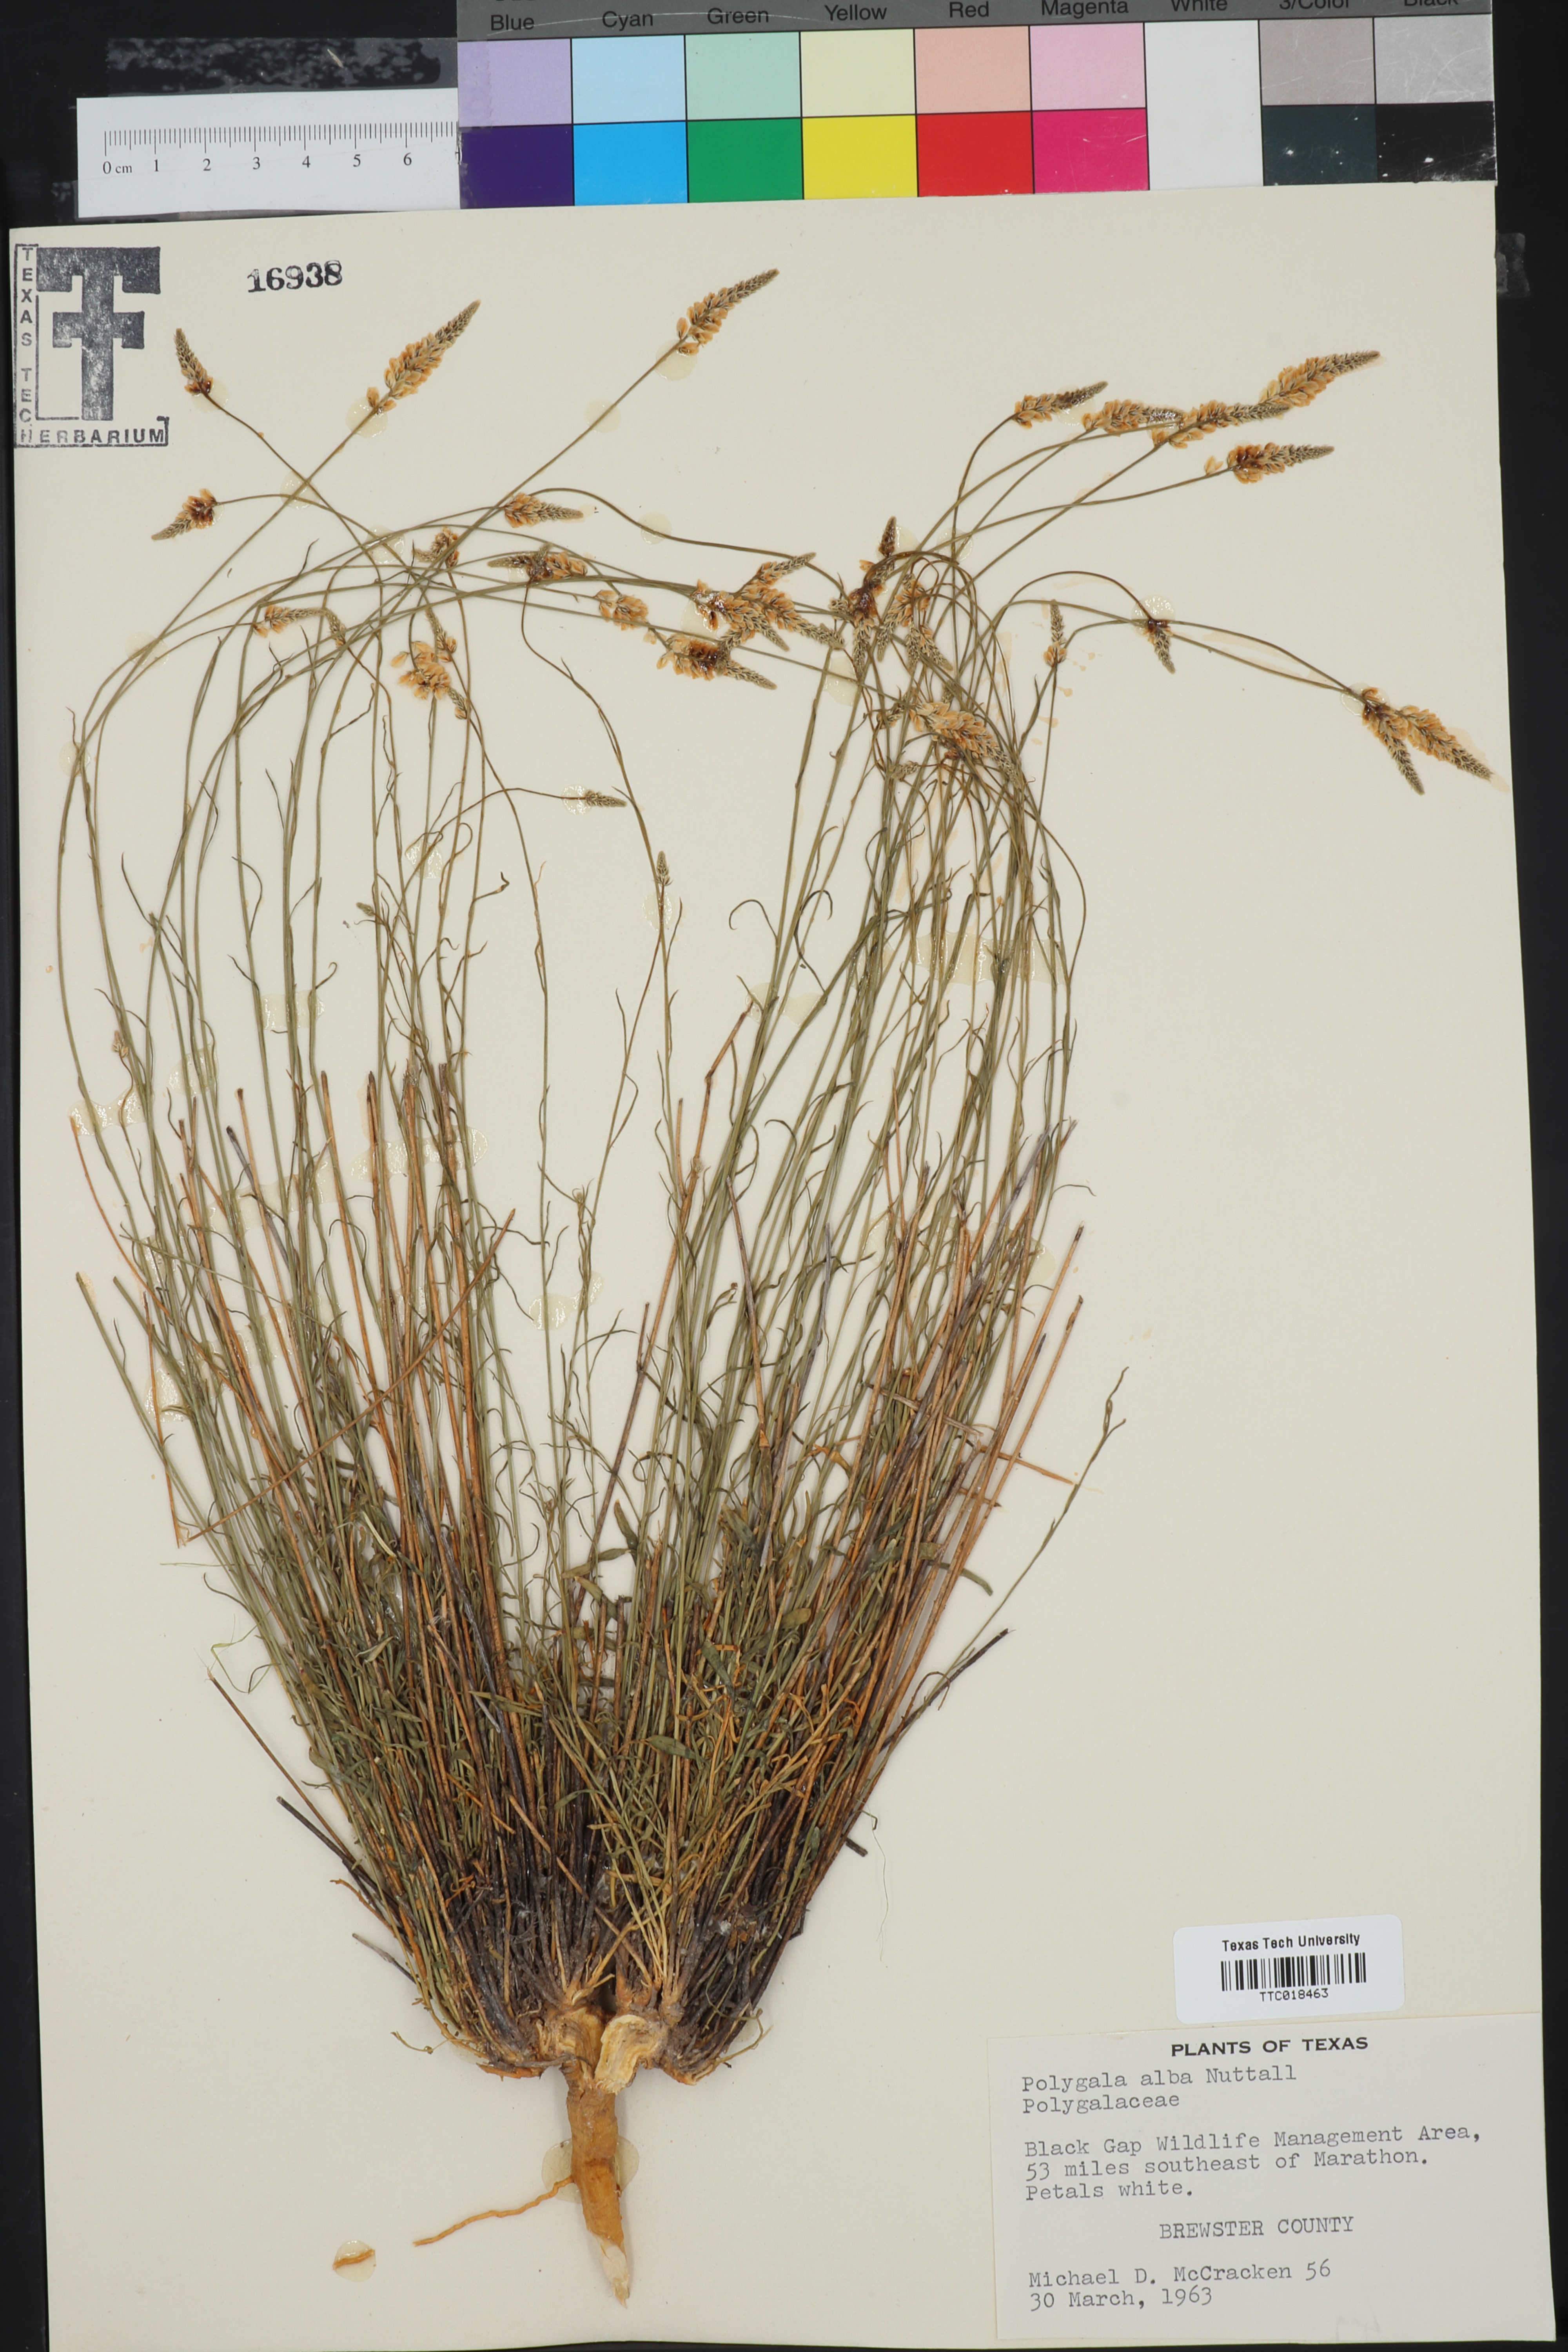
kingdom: Plantae
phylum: Tracheophyta
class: Magnoliopsida
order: Fabales
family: Polygalaceae
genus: Polygala
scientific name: Polygala alba
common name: White milkwort
